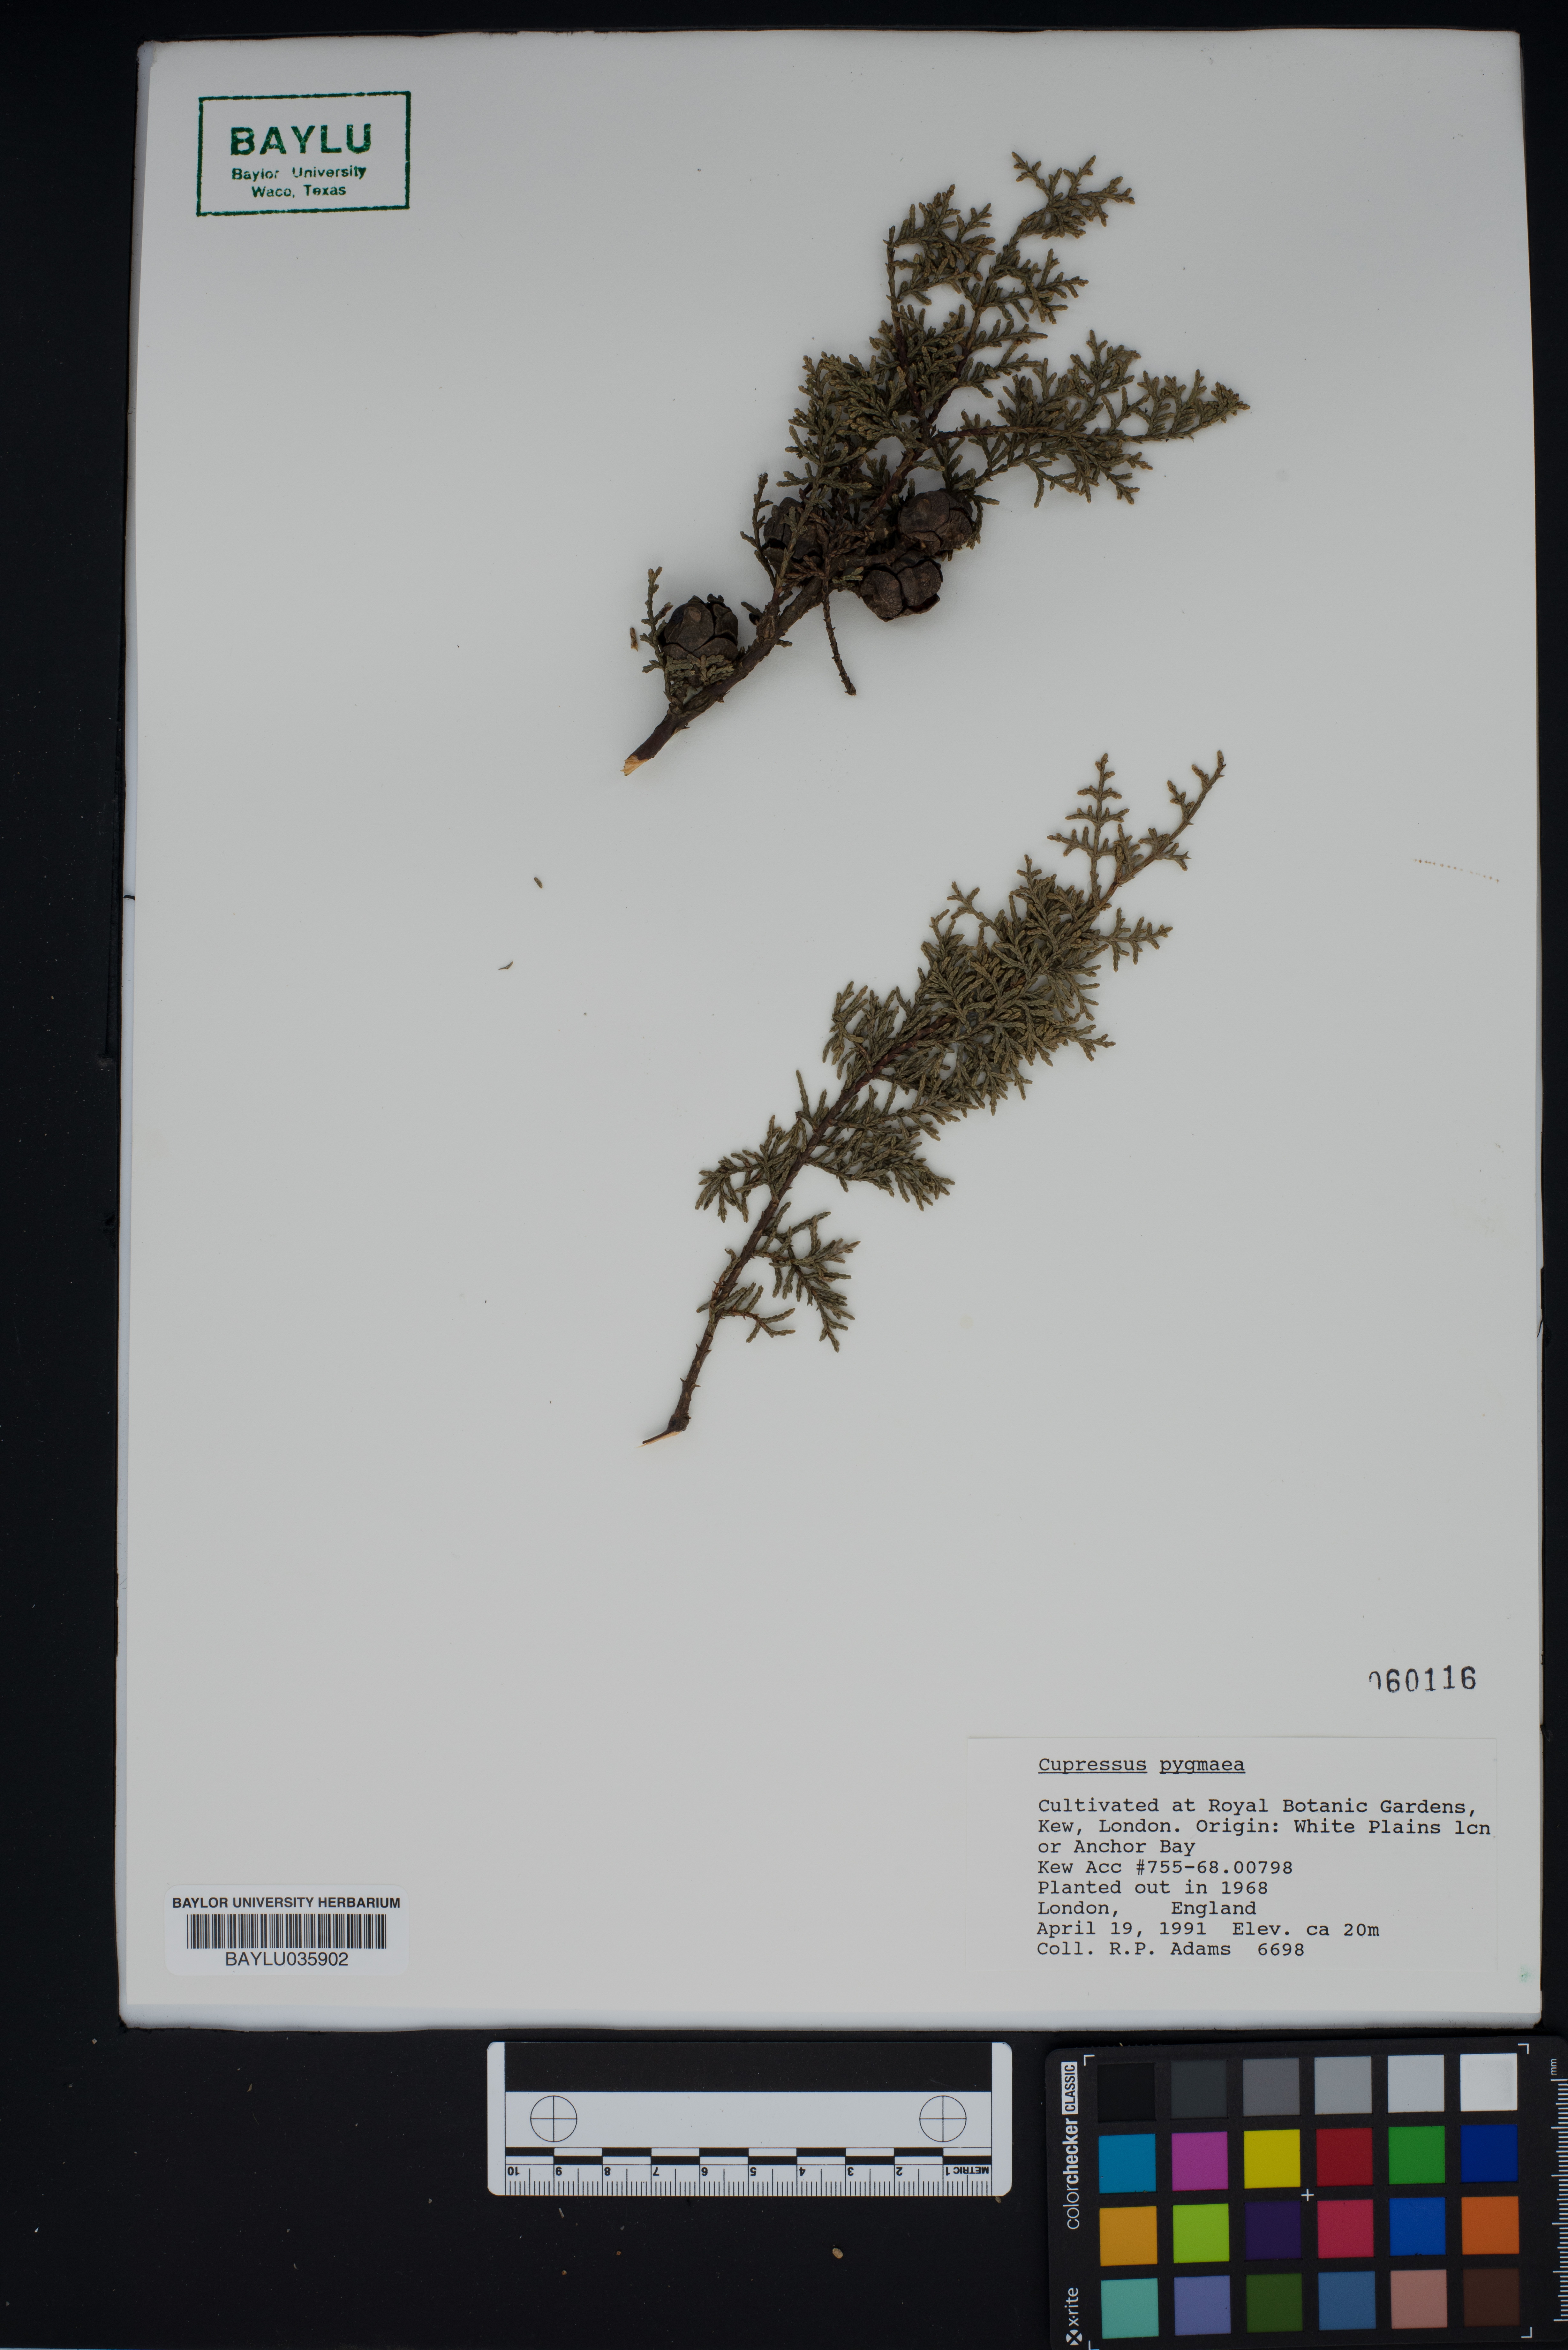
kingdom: Plantae
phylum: Tracheophyta
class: Pinopsida
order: Pinales
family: Cupressaceae
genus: Cupressus
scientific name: Cupressus goveniana
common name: Gowen cypress
